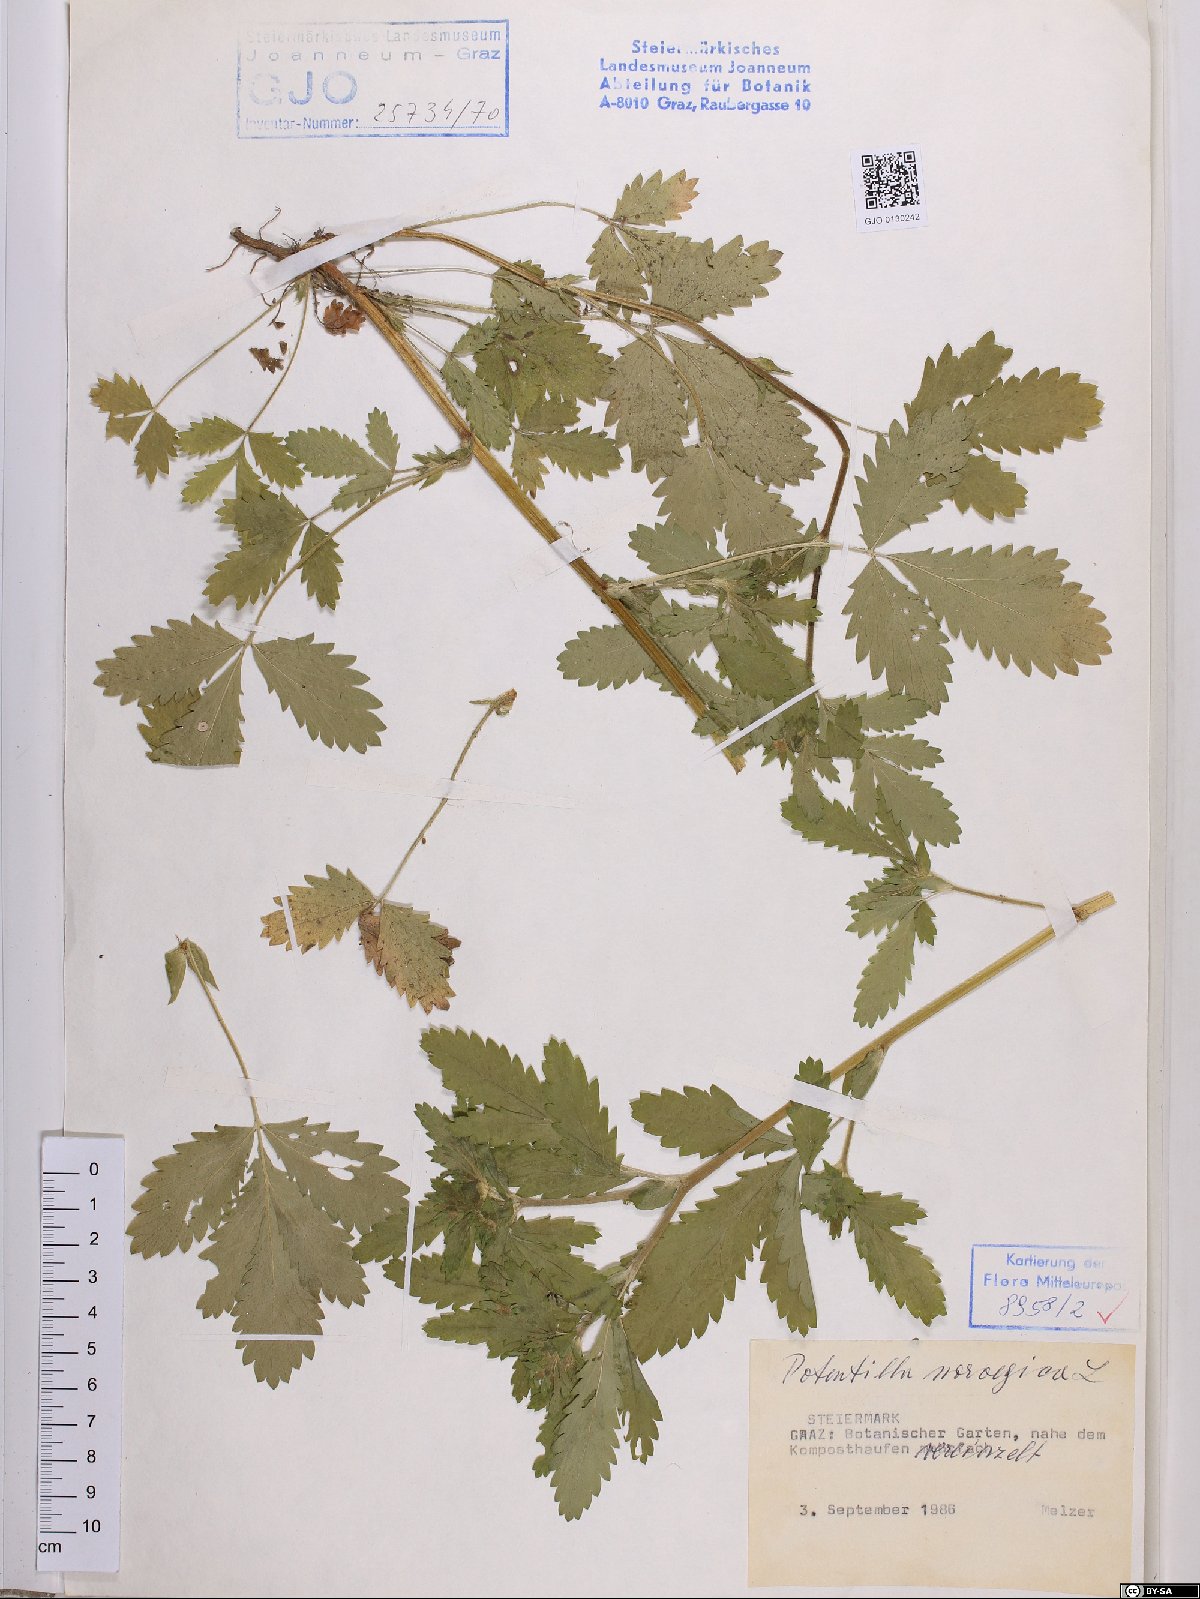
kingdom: Plantae
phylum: Tracheophyta
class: Magnoliopsida
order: Rosales
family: Rosaceae
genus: Potentilla
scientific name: Potentilla norvegica
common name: Ternate-leaved cinquefoil
